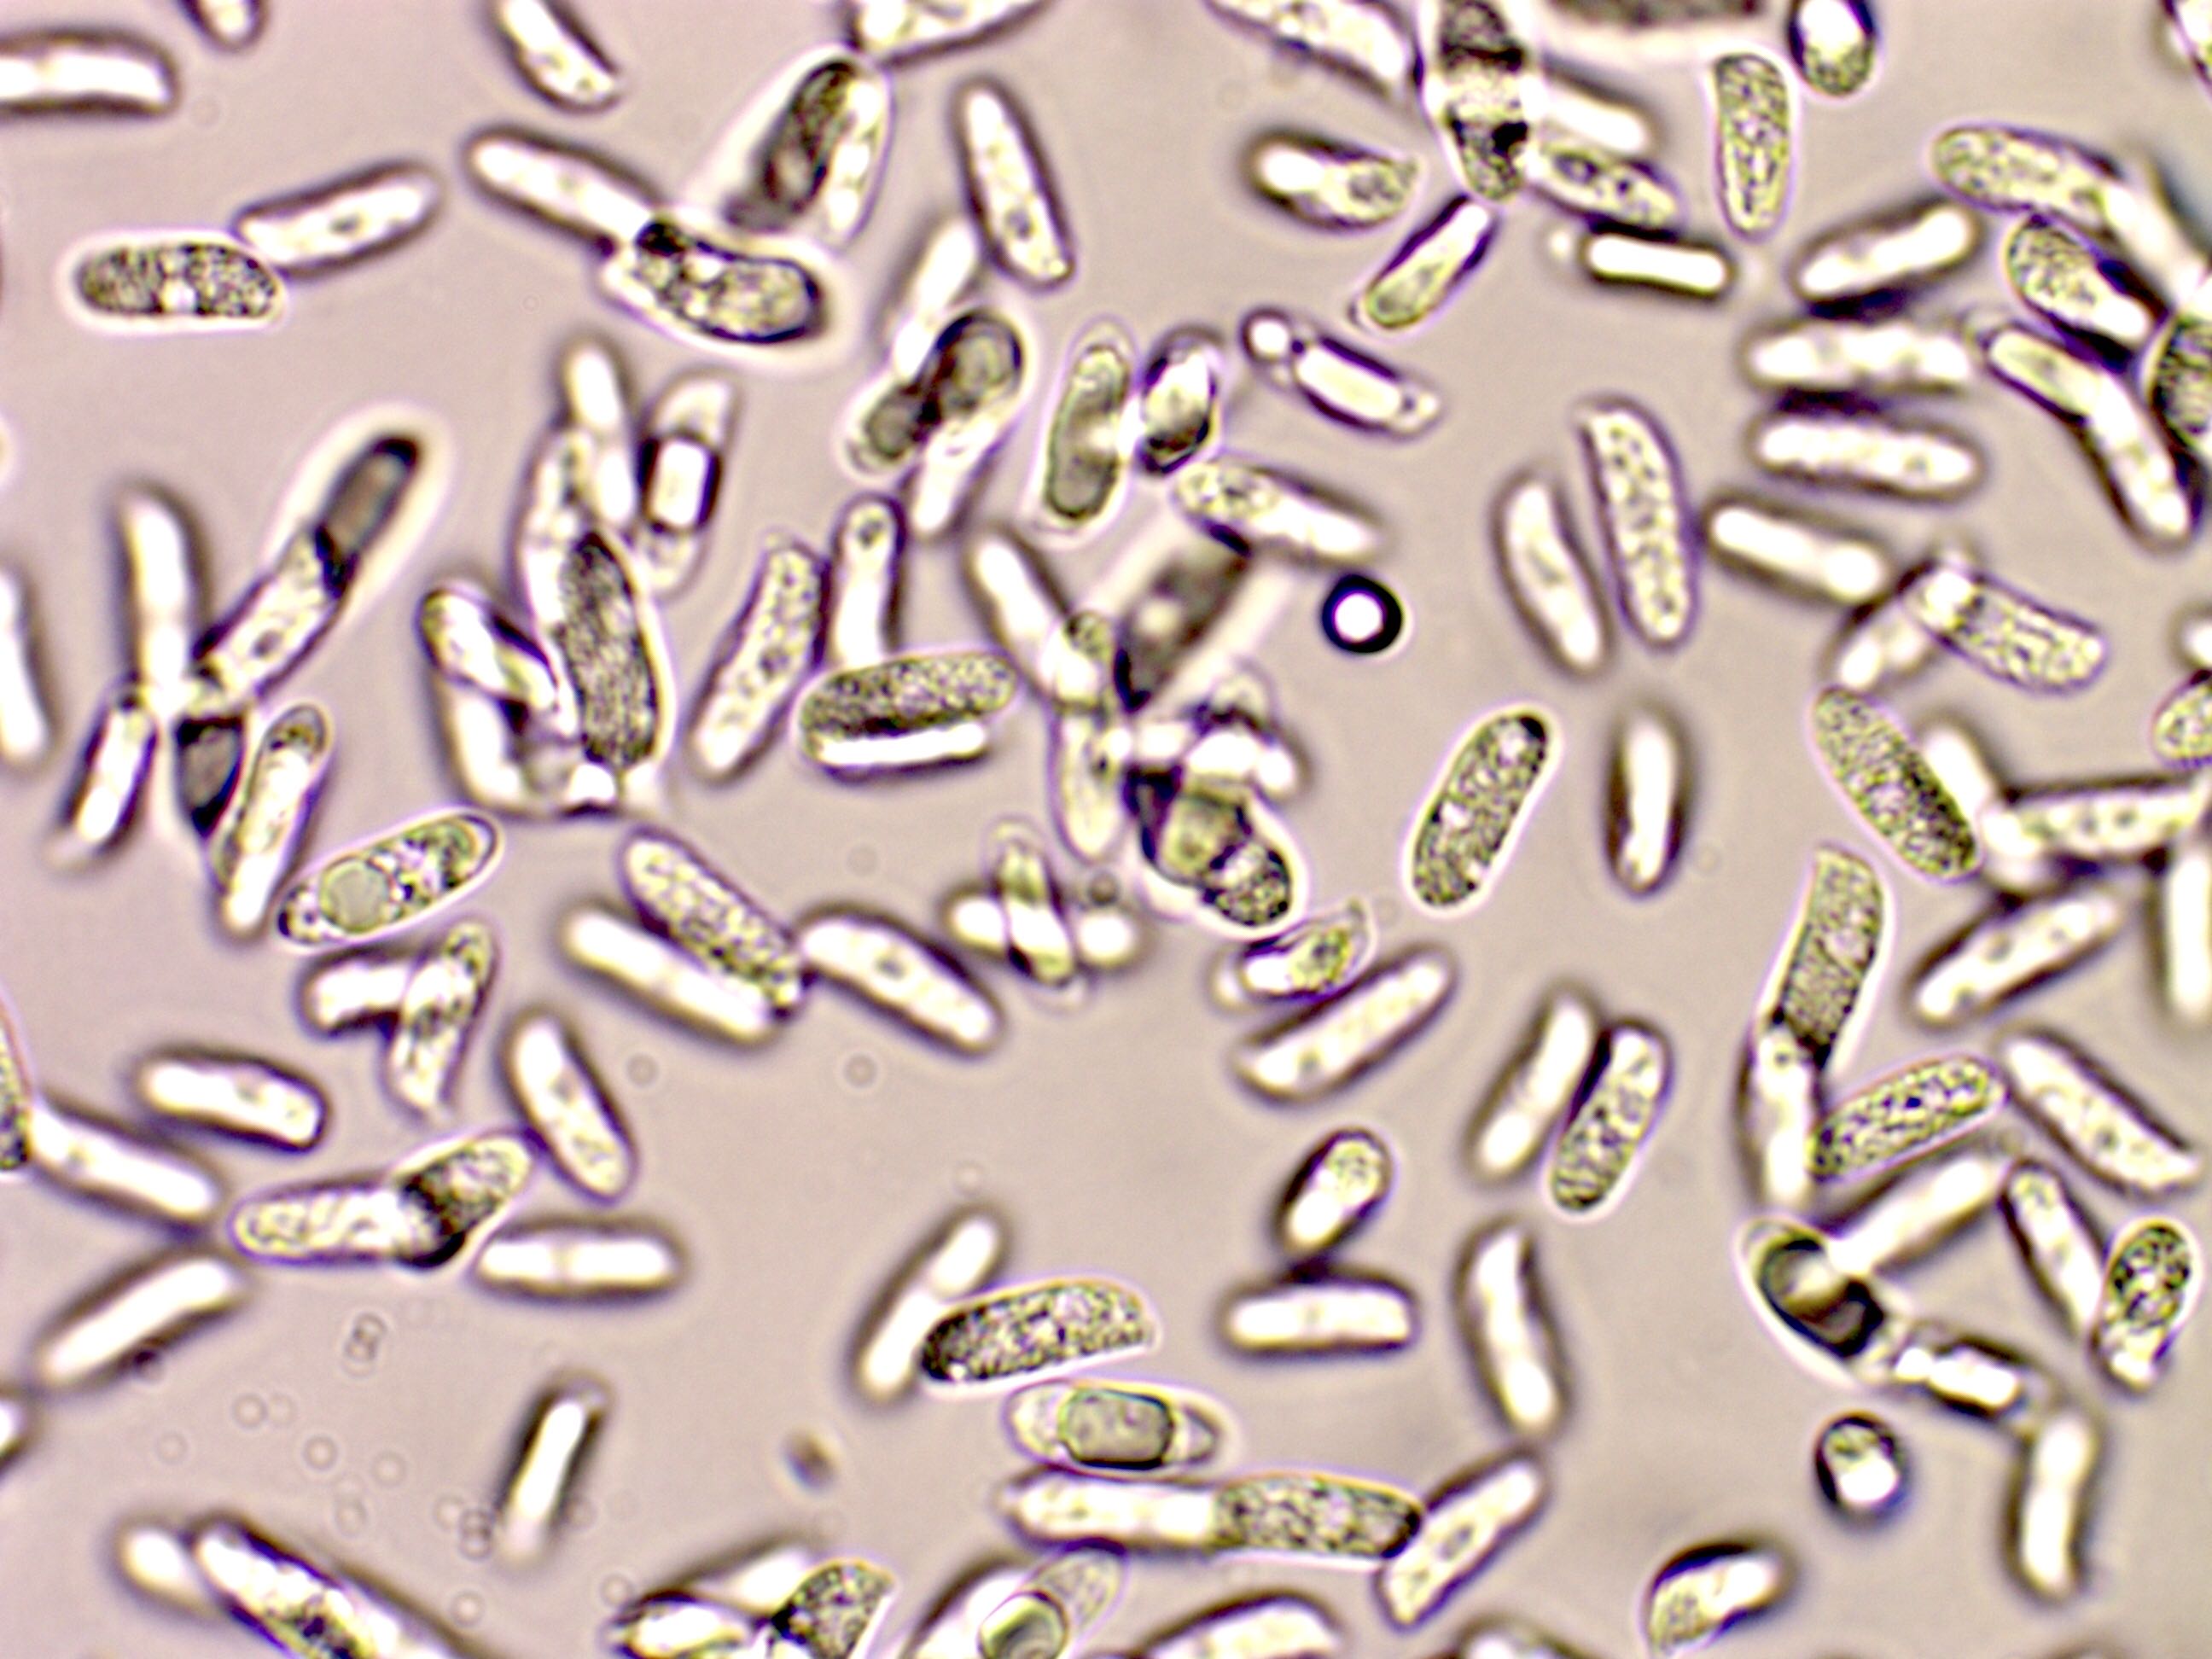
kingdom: Fungi
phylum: Basidiomycota
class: Agaricomycetes
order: Agaricales
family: Pleurotaceae
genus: Pleurotus
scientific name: Pleurotus dryinus
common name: korkagtig østershat
